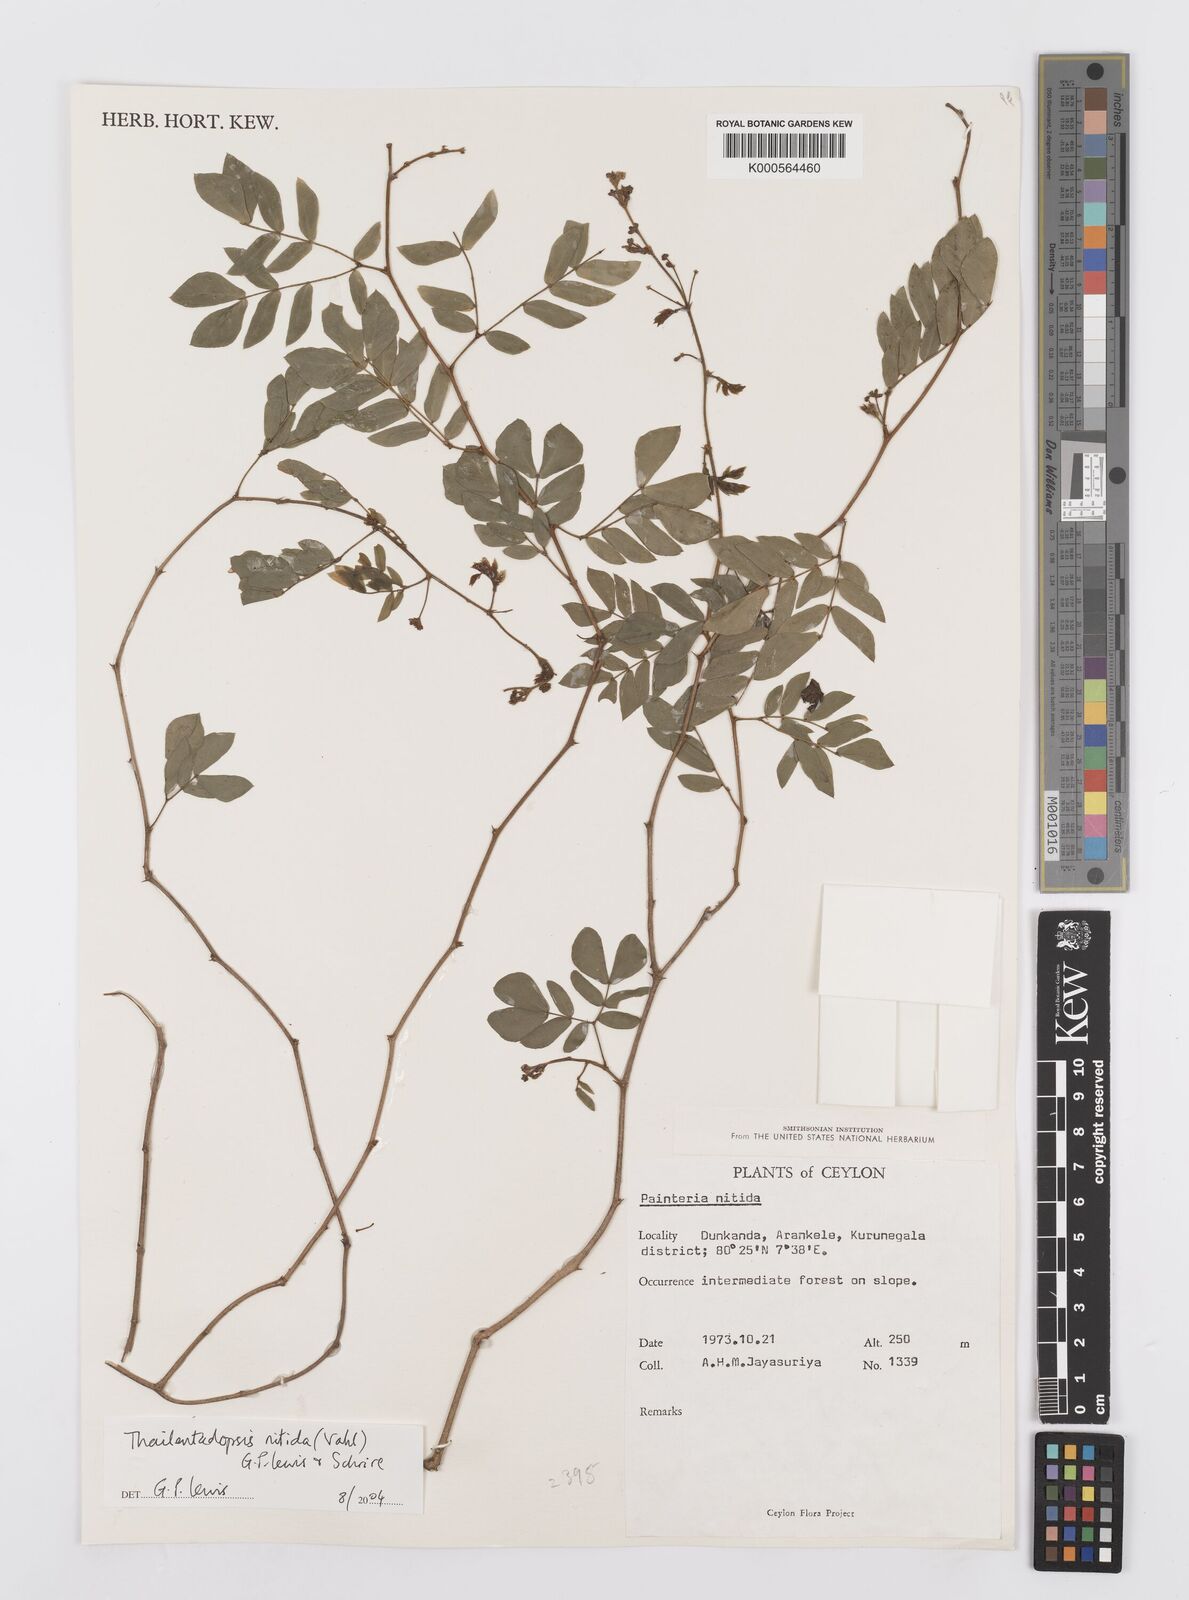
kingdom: Plantae
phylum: Tracheophyta
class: Magnoliopsida
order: Fabales
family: Fabaceae
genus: Thailentadopsis
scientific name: Thailentadopsis nitida
